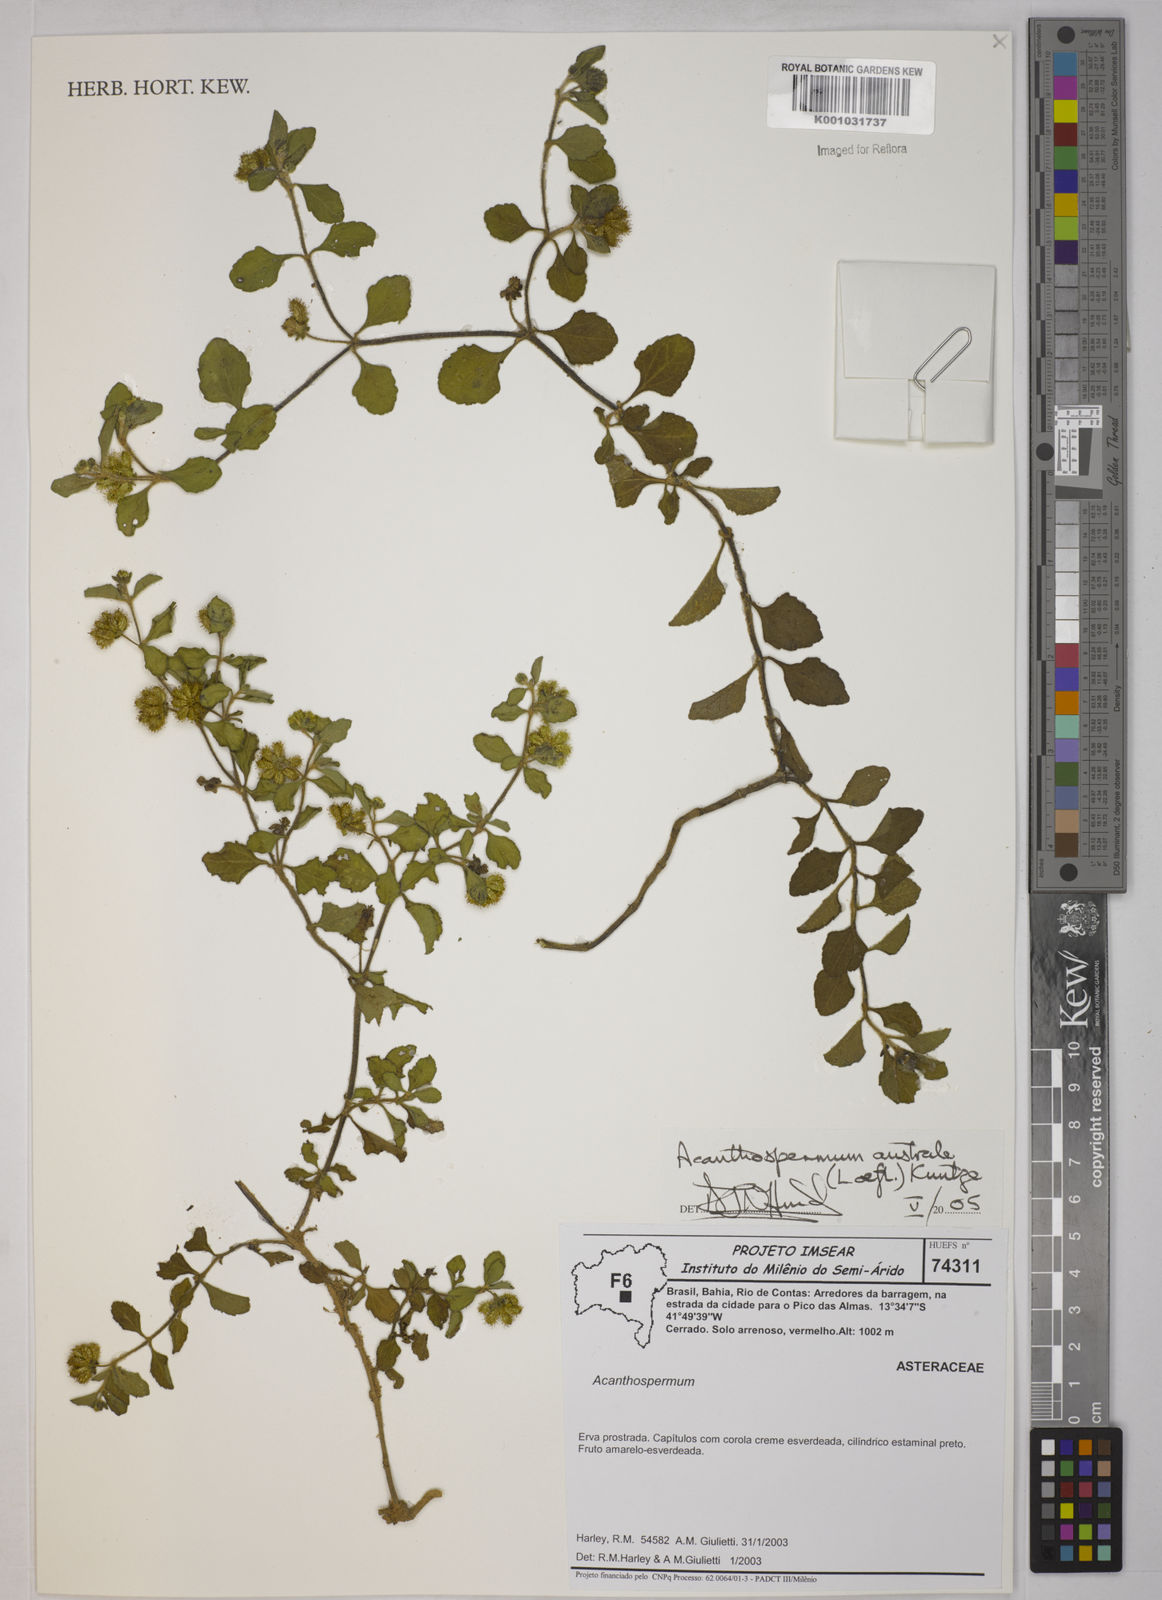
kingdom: Plantae
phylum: Tracheophyta
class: Magnoliopsida
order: Asterales
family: Asteraceae
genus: Acanthospermum
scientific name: Acanthospermum australe
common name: Paraguayan starbur
